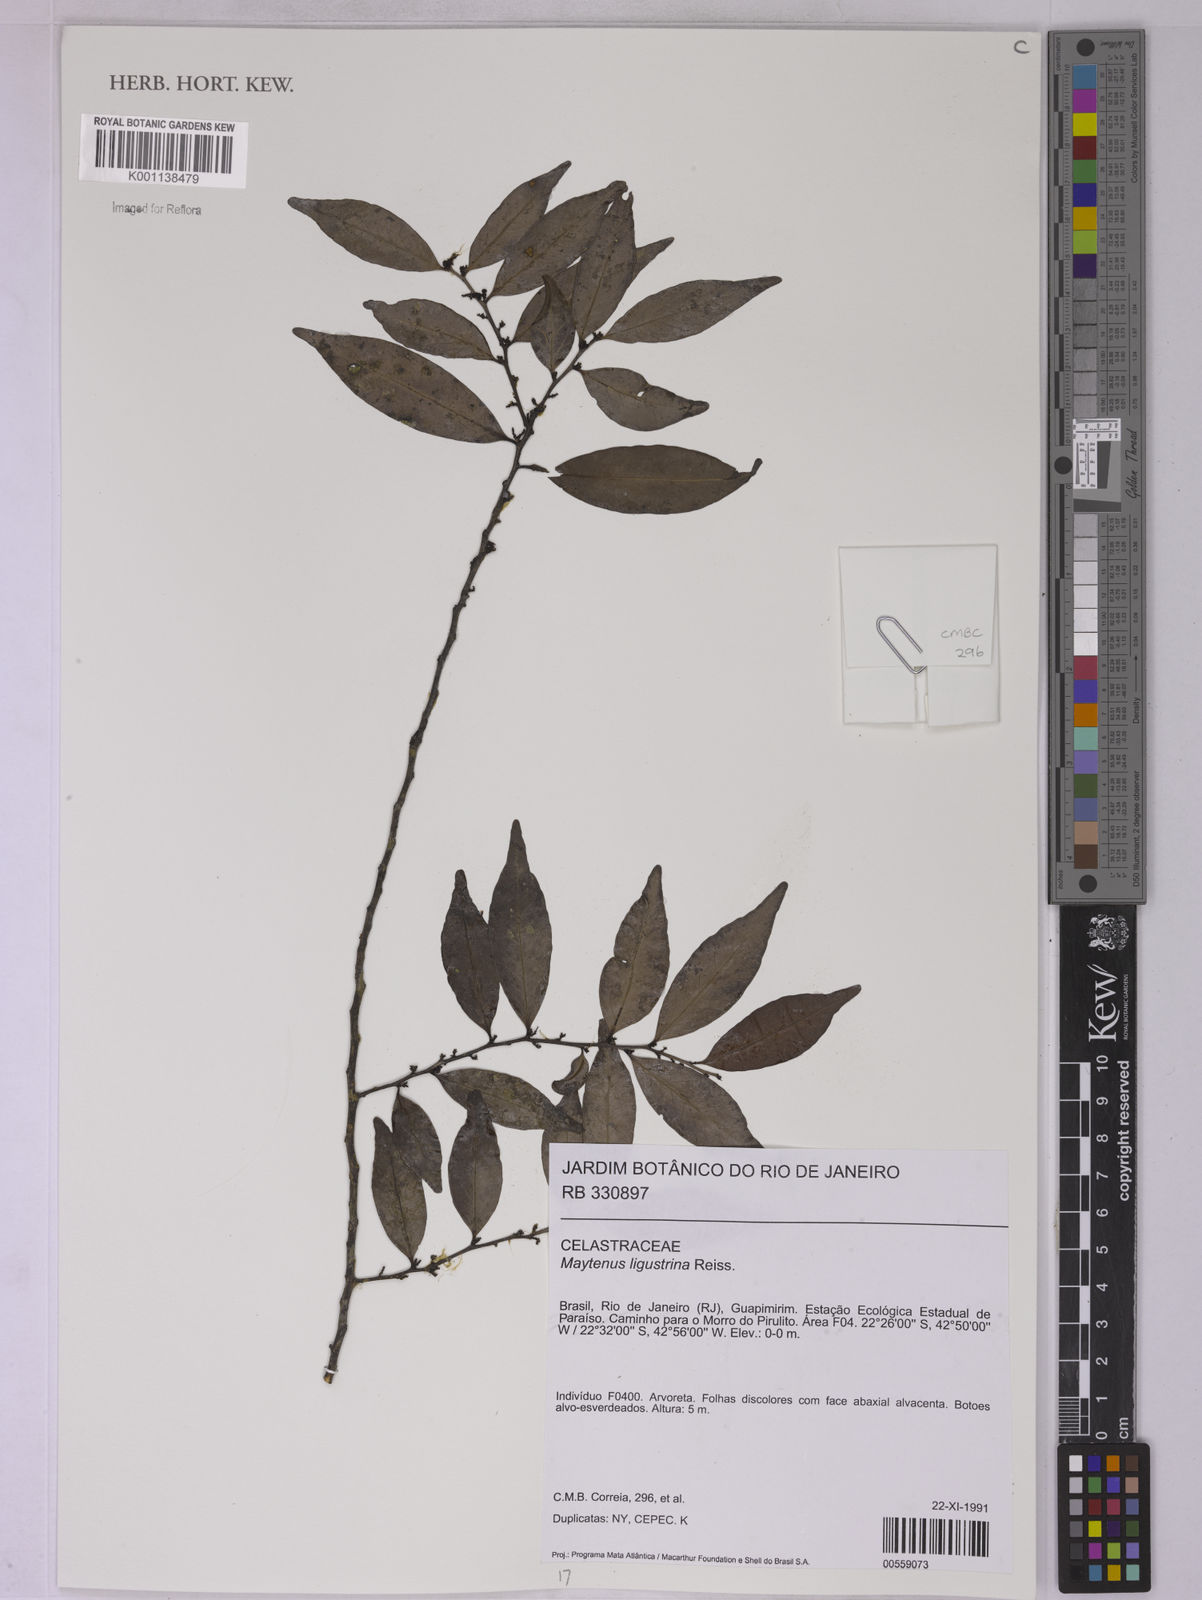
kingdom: Plantae
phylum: Tracheophyta
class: Magnoliopsida
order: Celastrales
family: Celastraceae
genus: Monteverdia
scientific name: Monteverdia brasiliensis
